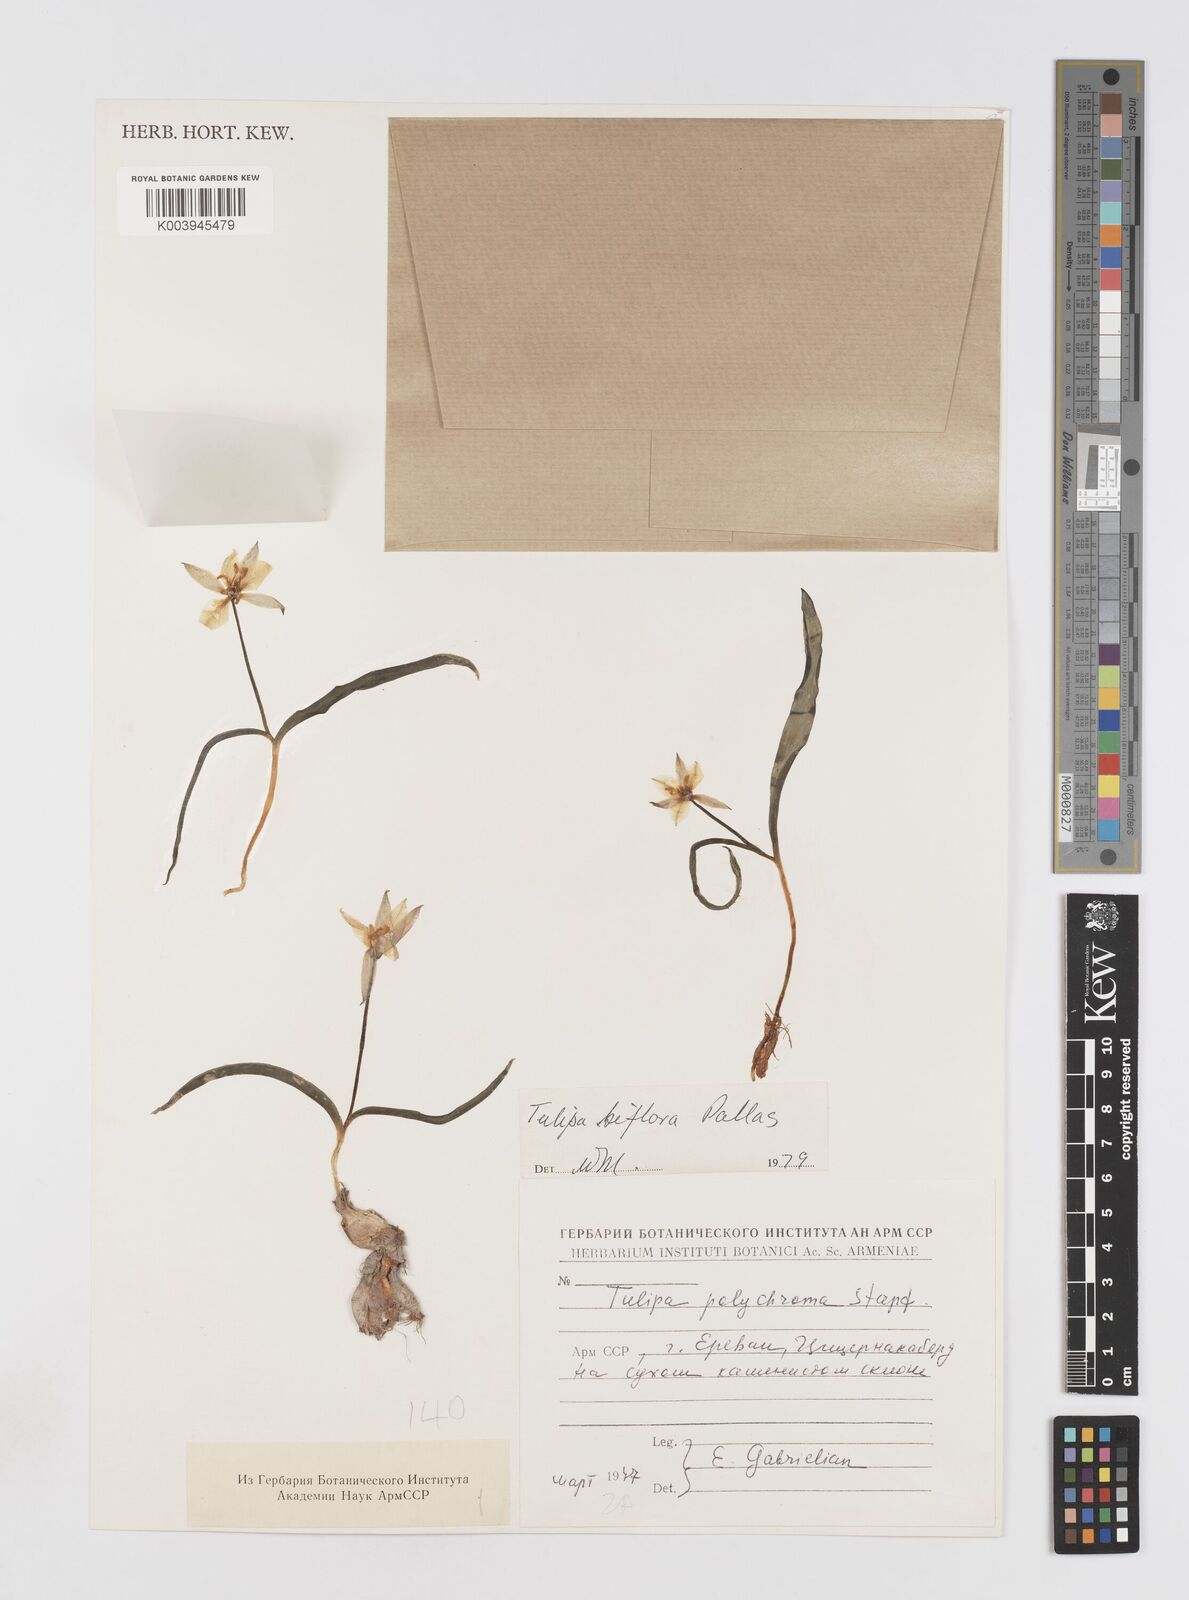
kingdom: Plantae
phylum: Tracheophyta
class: Liliopsida
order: Liliales
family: Liliaceae
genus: Tulipa
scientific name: Tulipa biflora
